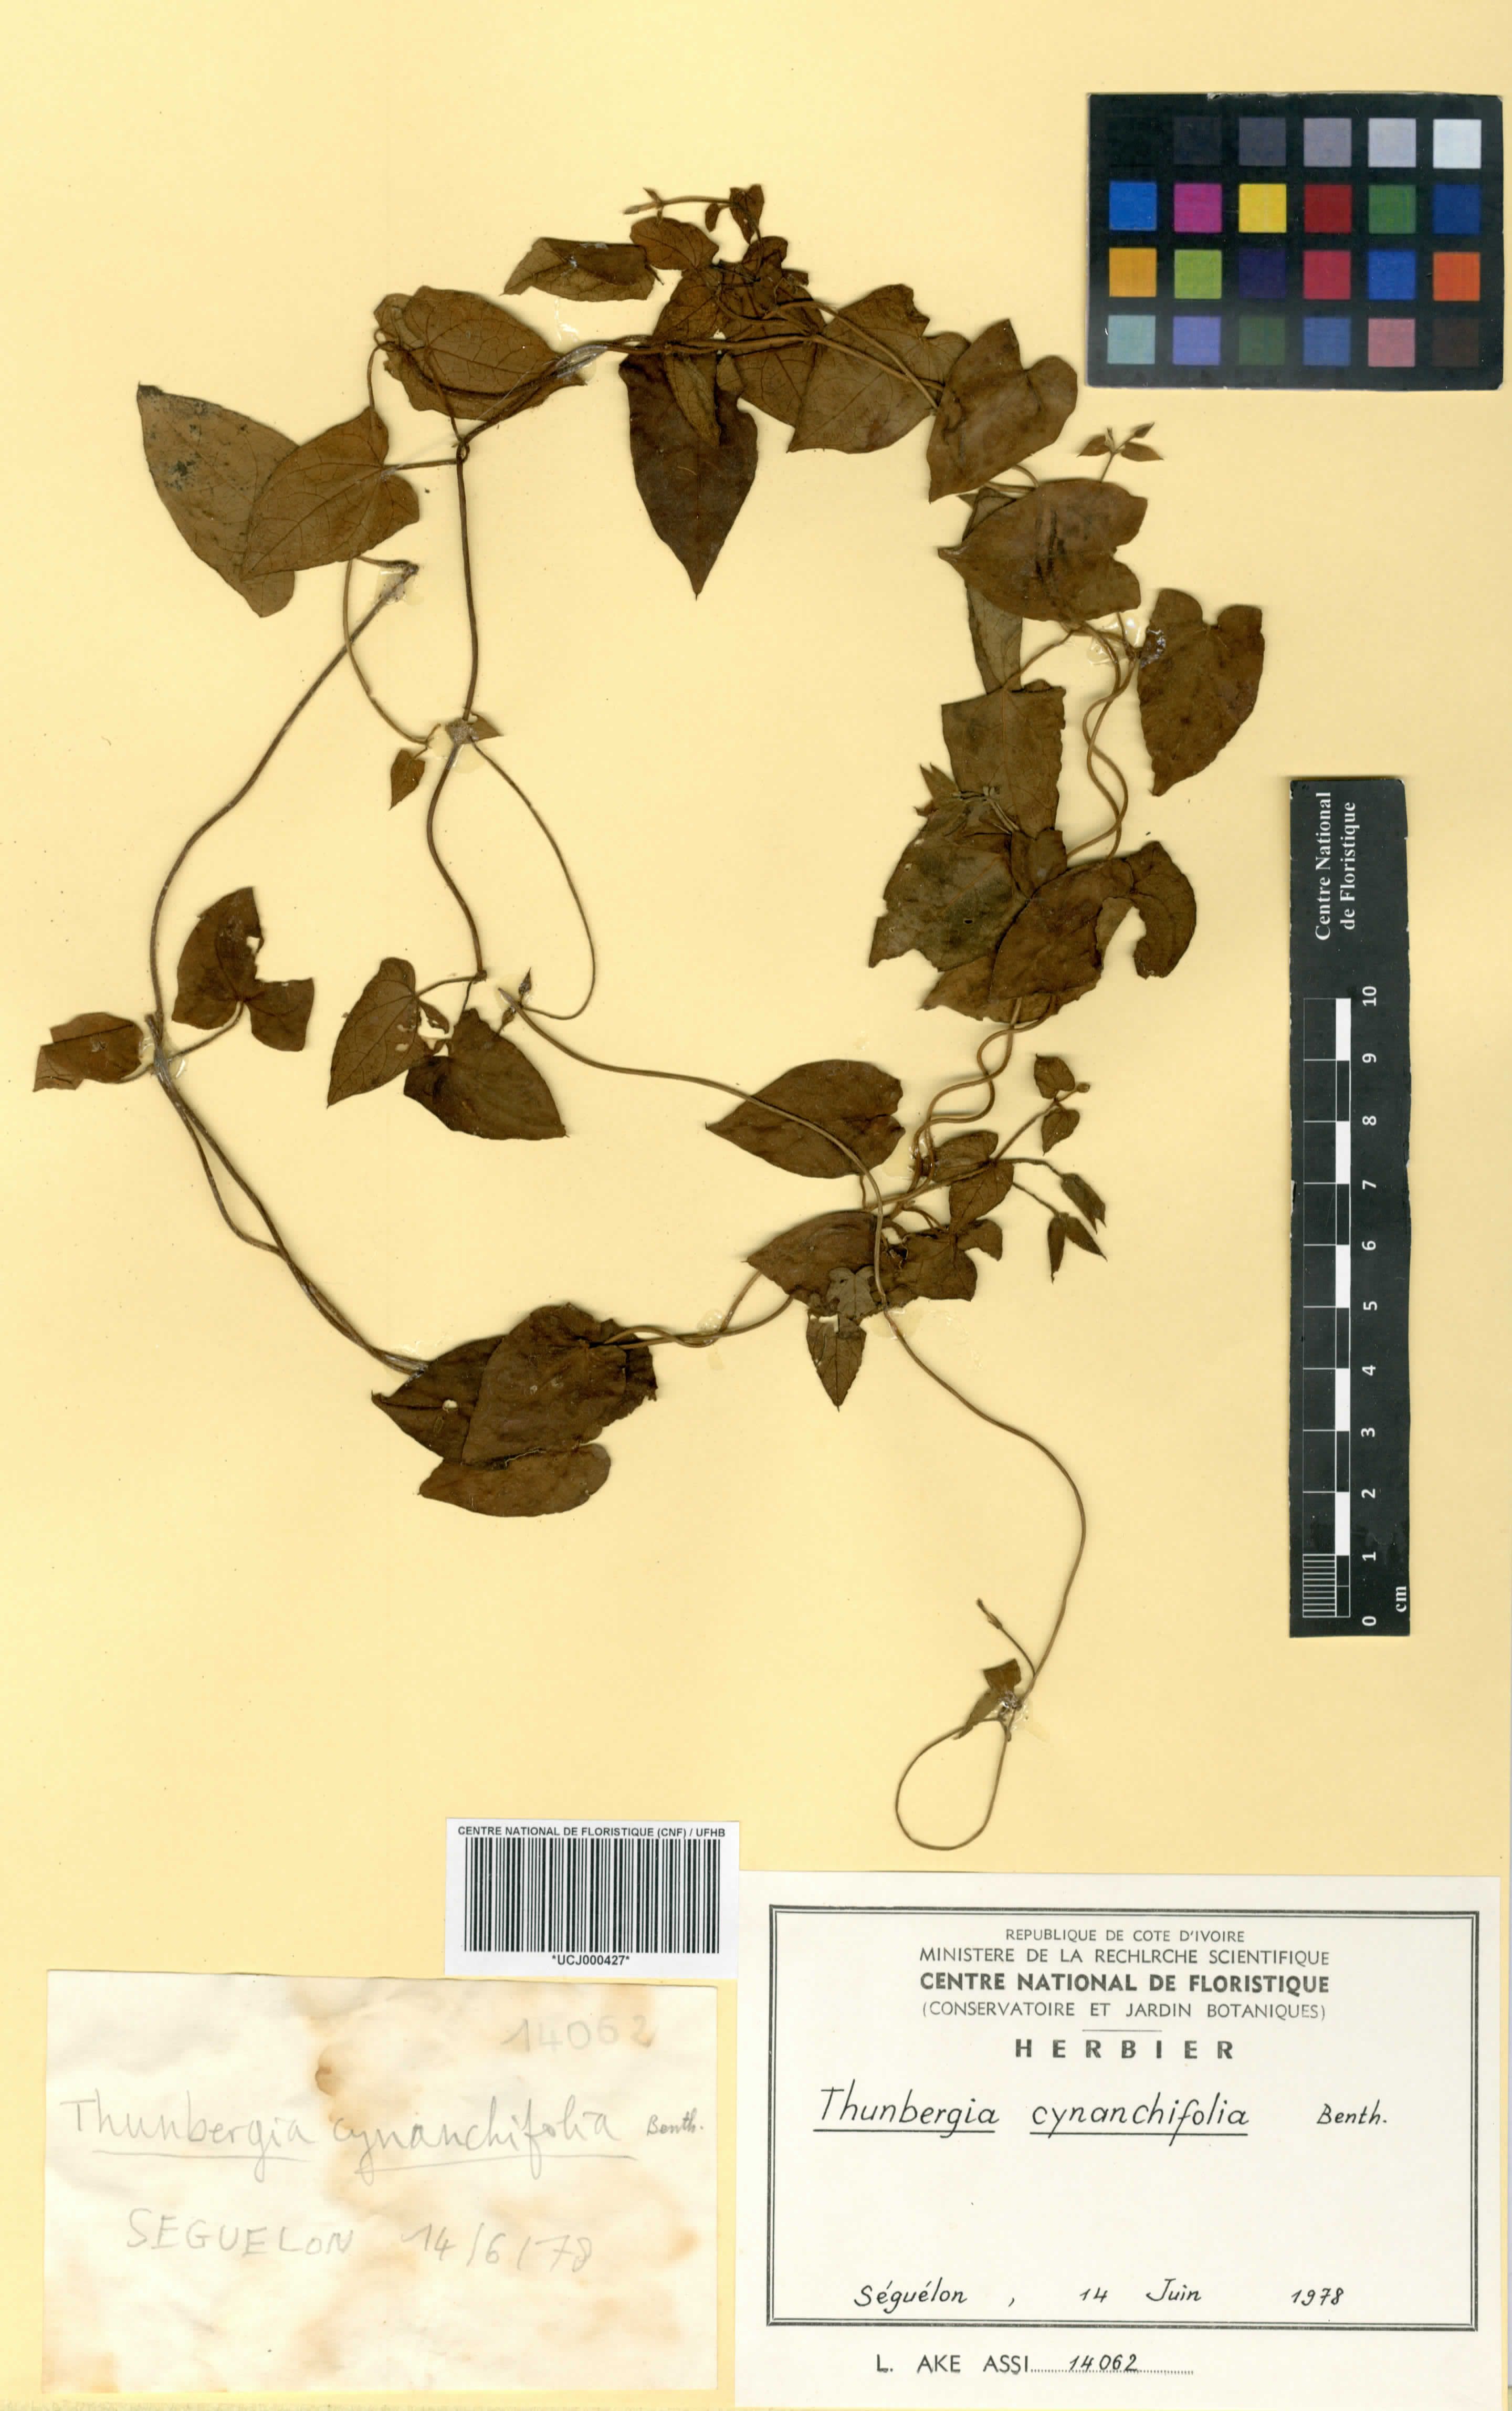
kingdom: Plantae
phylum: Tracheophyta
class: Magnoliopsida
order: Lamiales
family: Acanthaceae
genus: Thunbergia
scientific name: Thunbergia cynanchifolia
